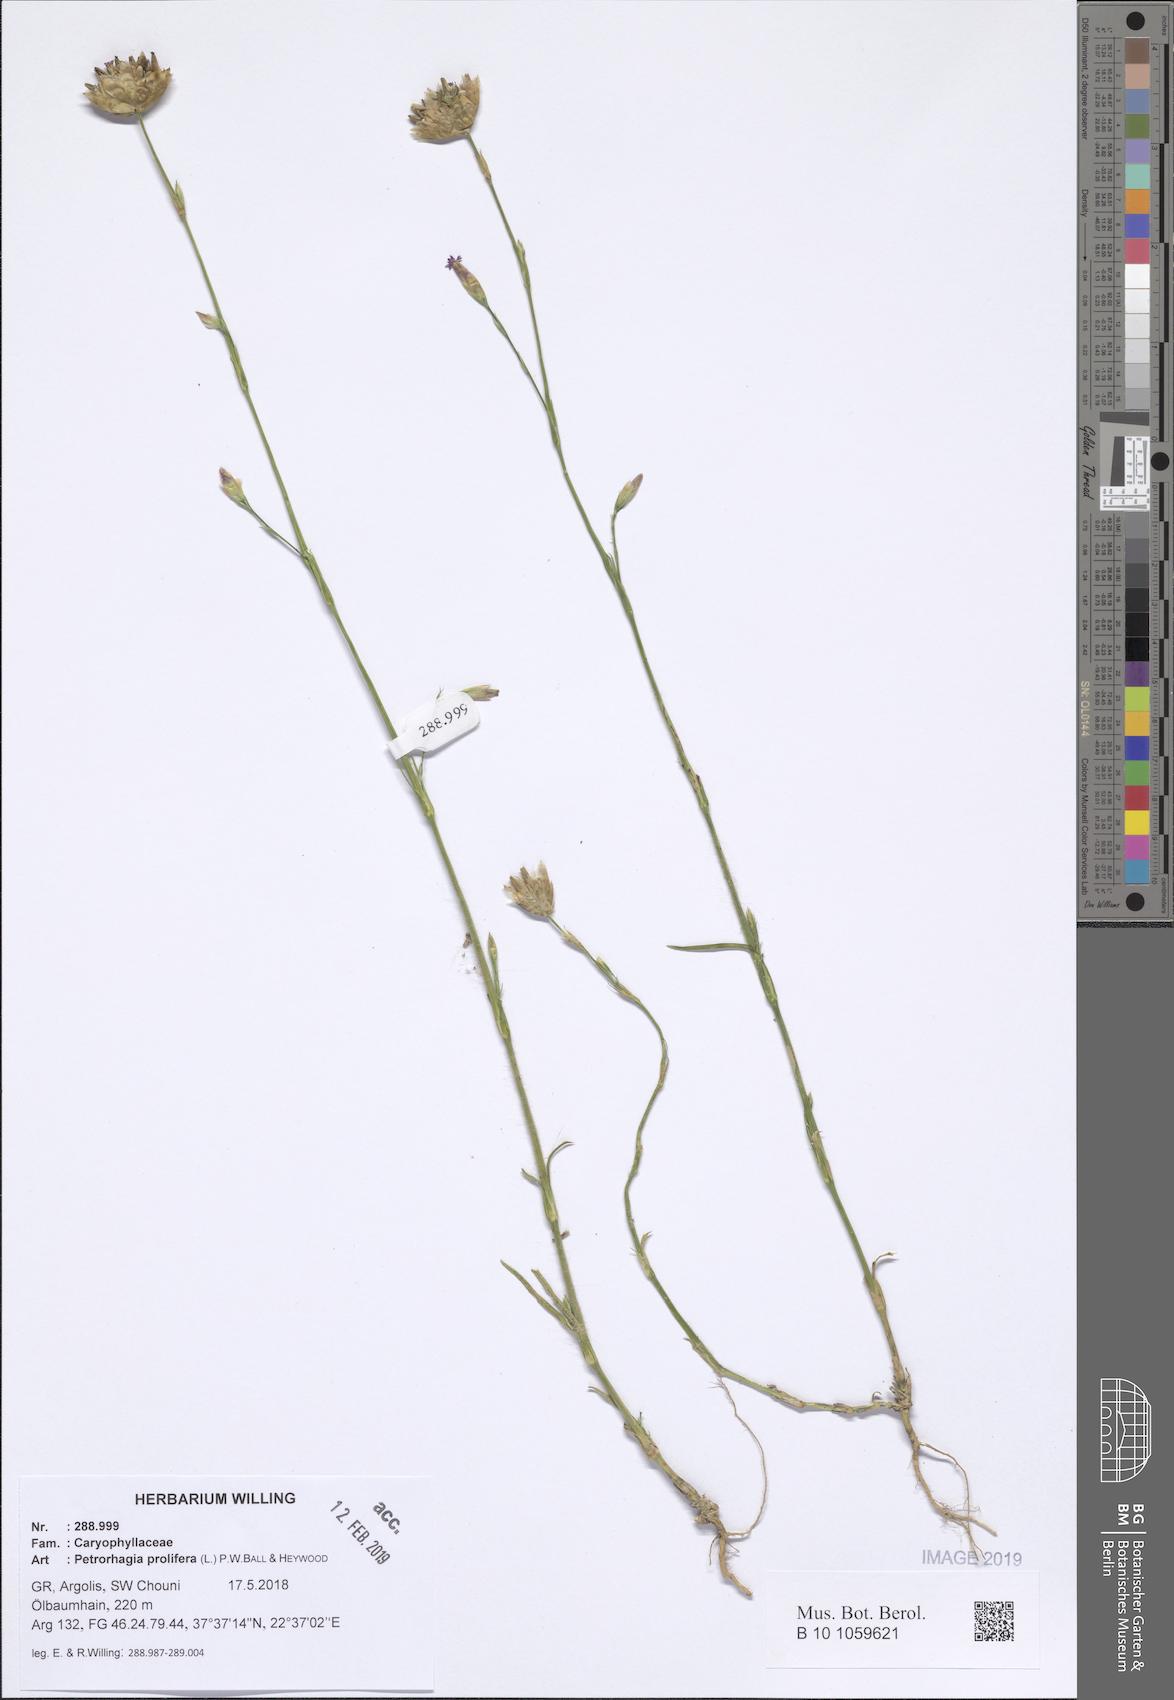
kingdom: Plantae
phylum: Tracheophyta
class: Magnoliopsida
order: Caryophyllales
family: Caryophyllaceae
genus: Petrorhagia
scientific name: Petrorhagia prolifera
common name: Proliferous pink
